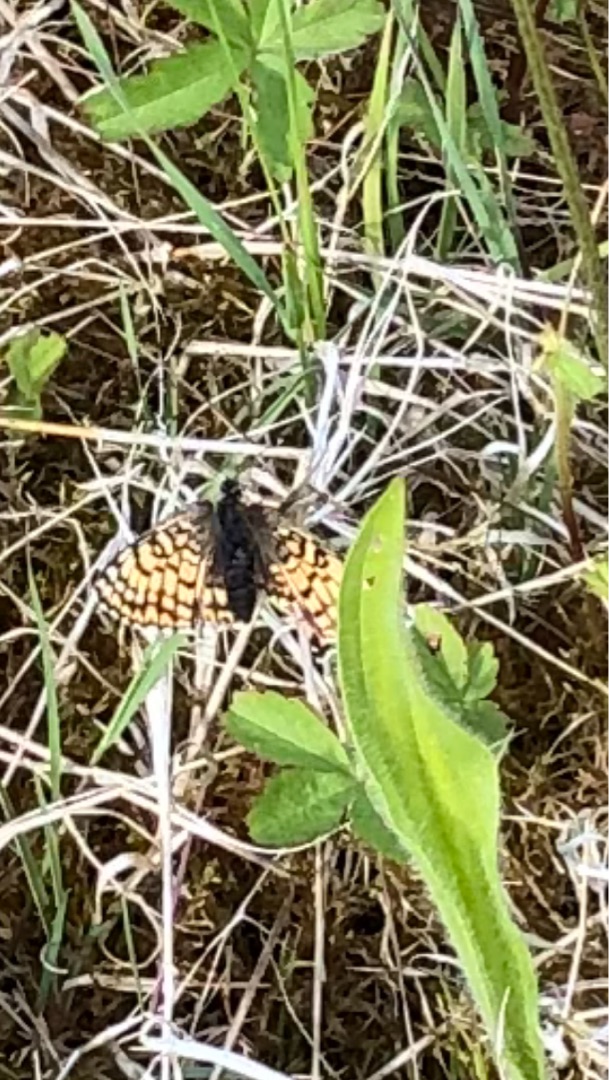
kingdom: Animalia
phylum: Arthropoda
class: Insecta
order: Lepidoptera
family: Nymphalidae
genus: Melitaea
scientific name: Melitaea cinxia
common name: Okkergul pletvinge
